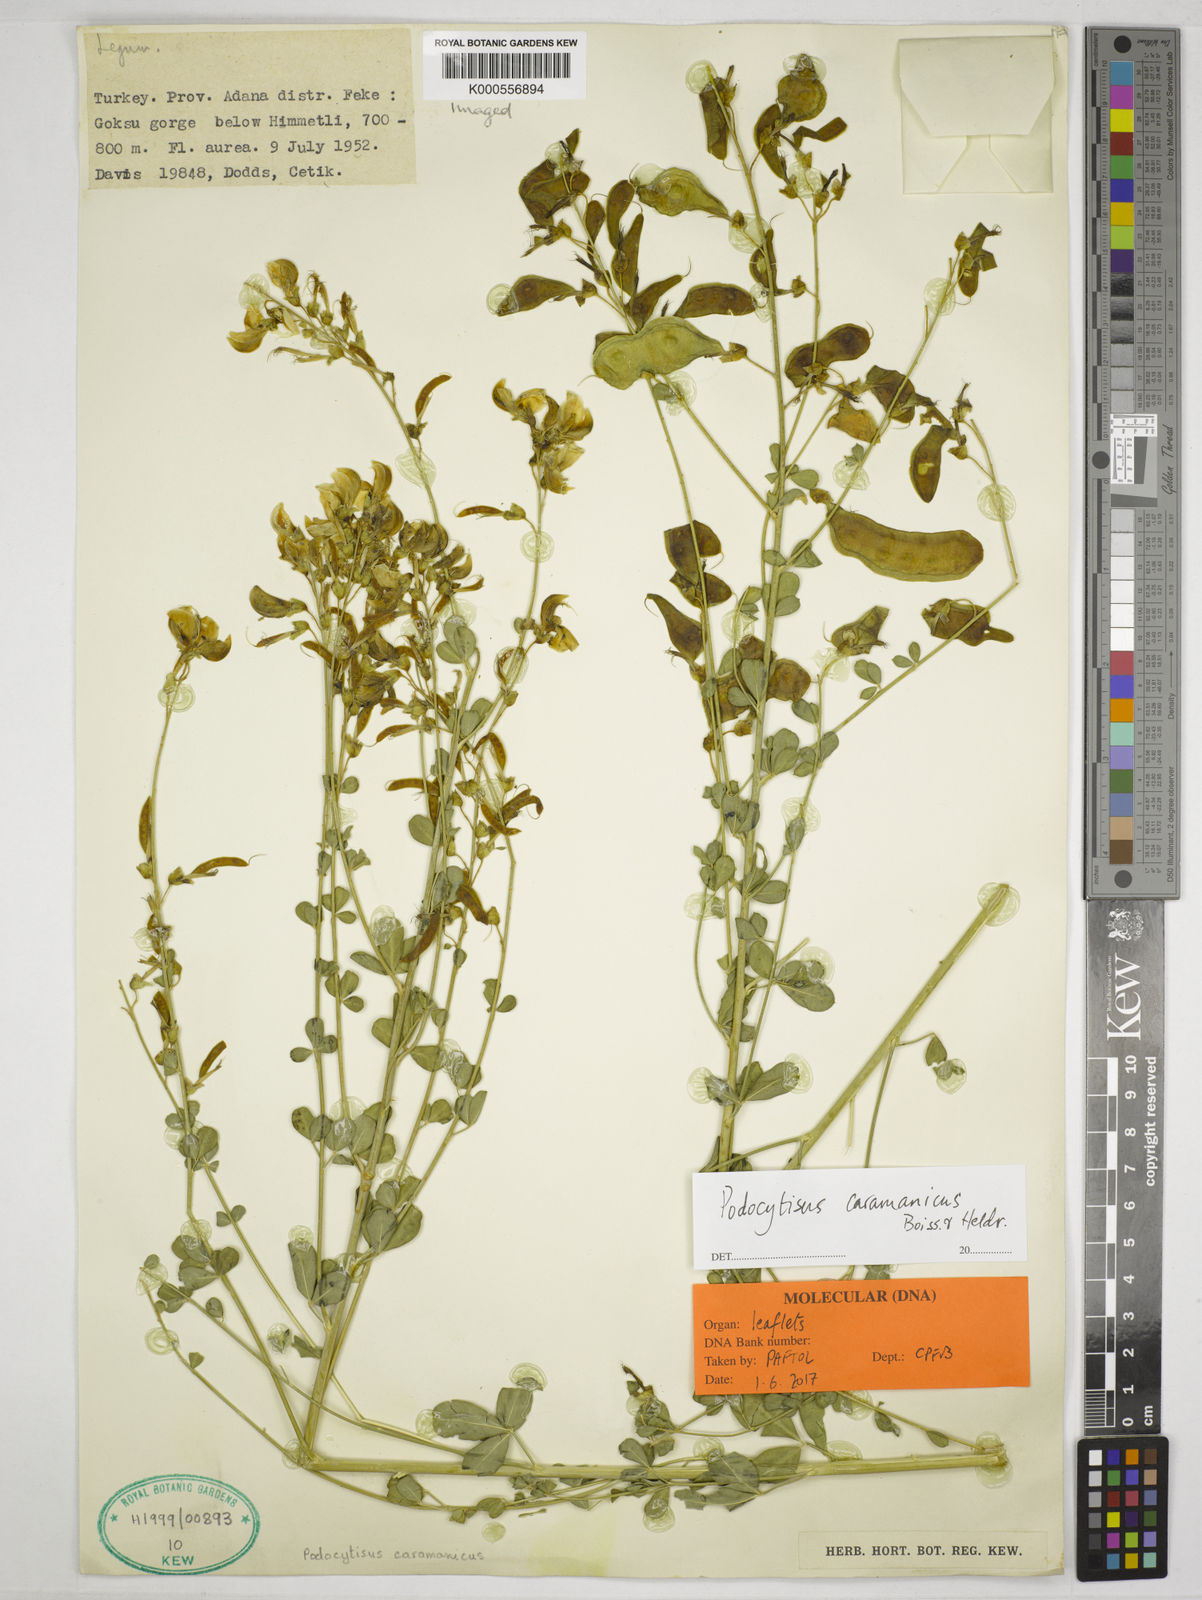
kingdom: Plantae
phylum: Tracheophyta
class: Magnoliopsida
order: Fabales
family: Fabaceae
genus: Podocytisus
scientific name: Podocytisus caramanicus
